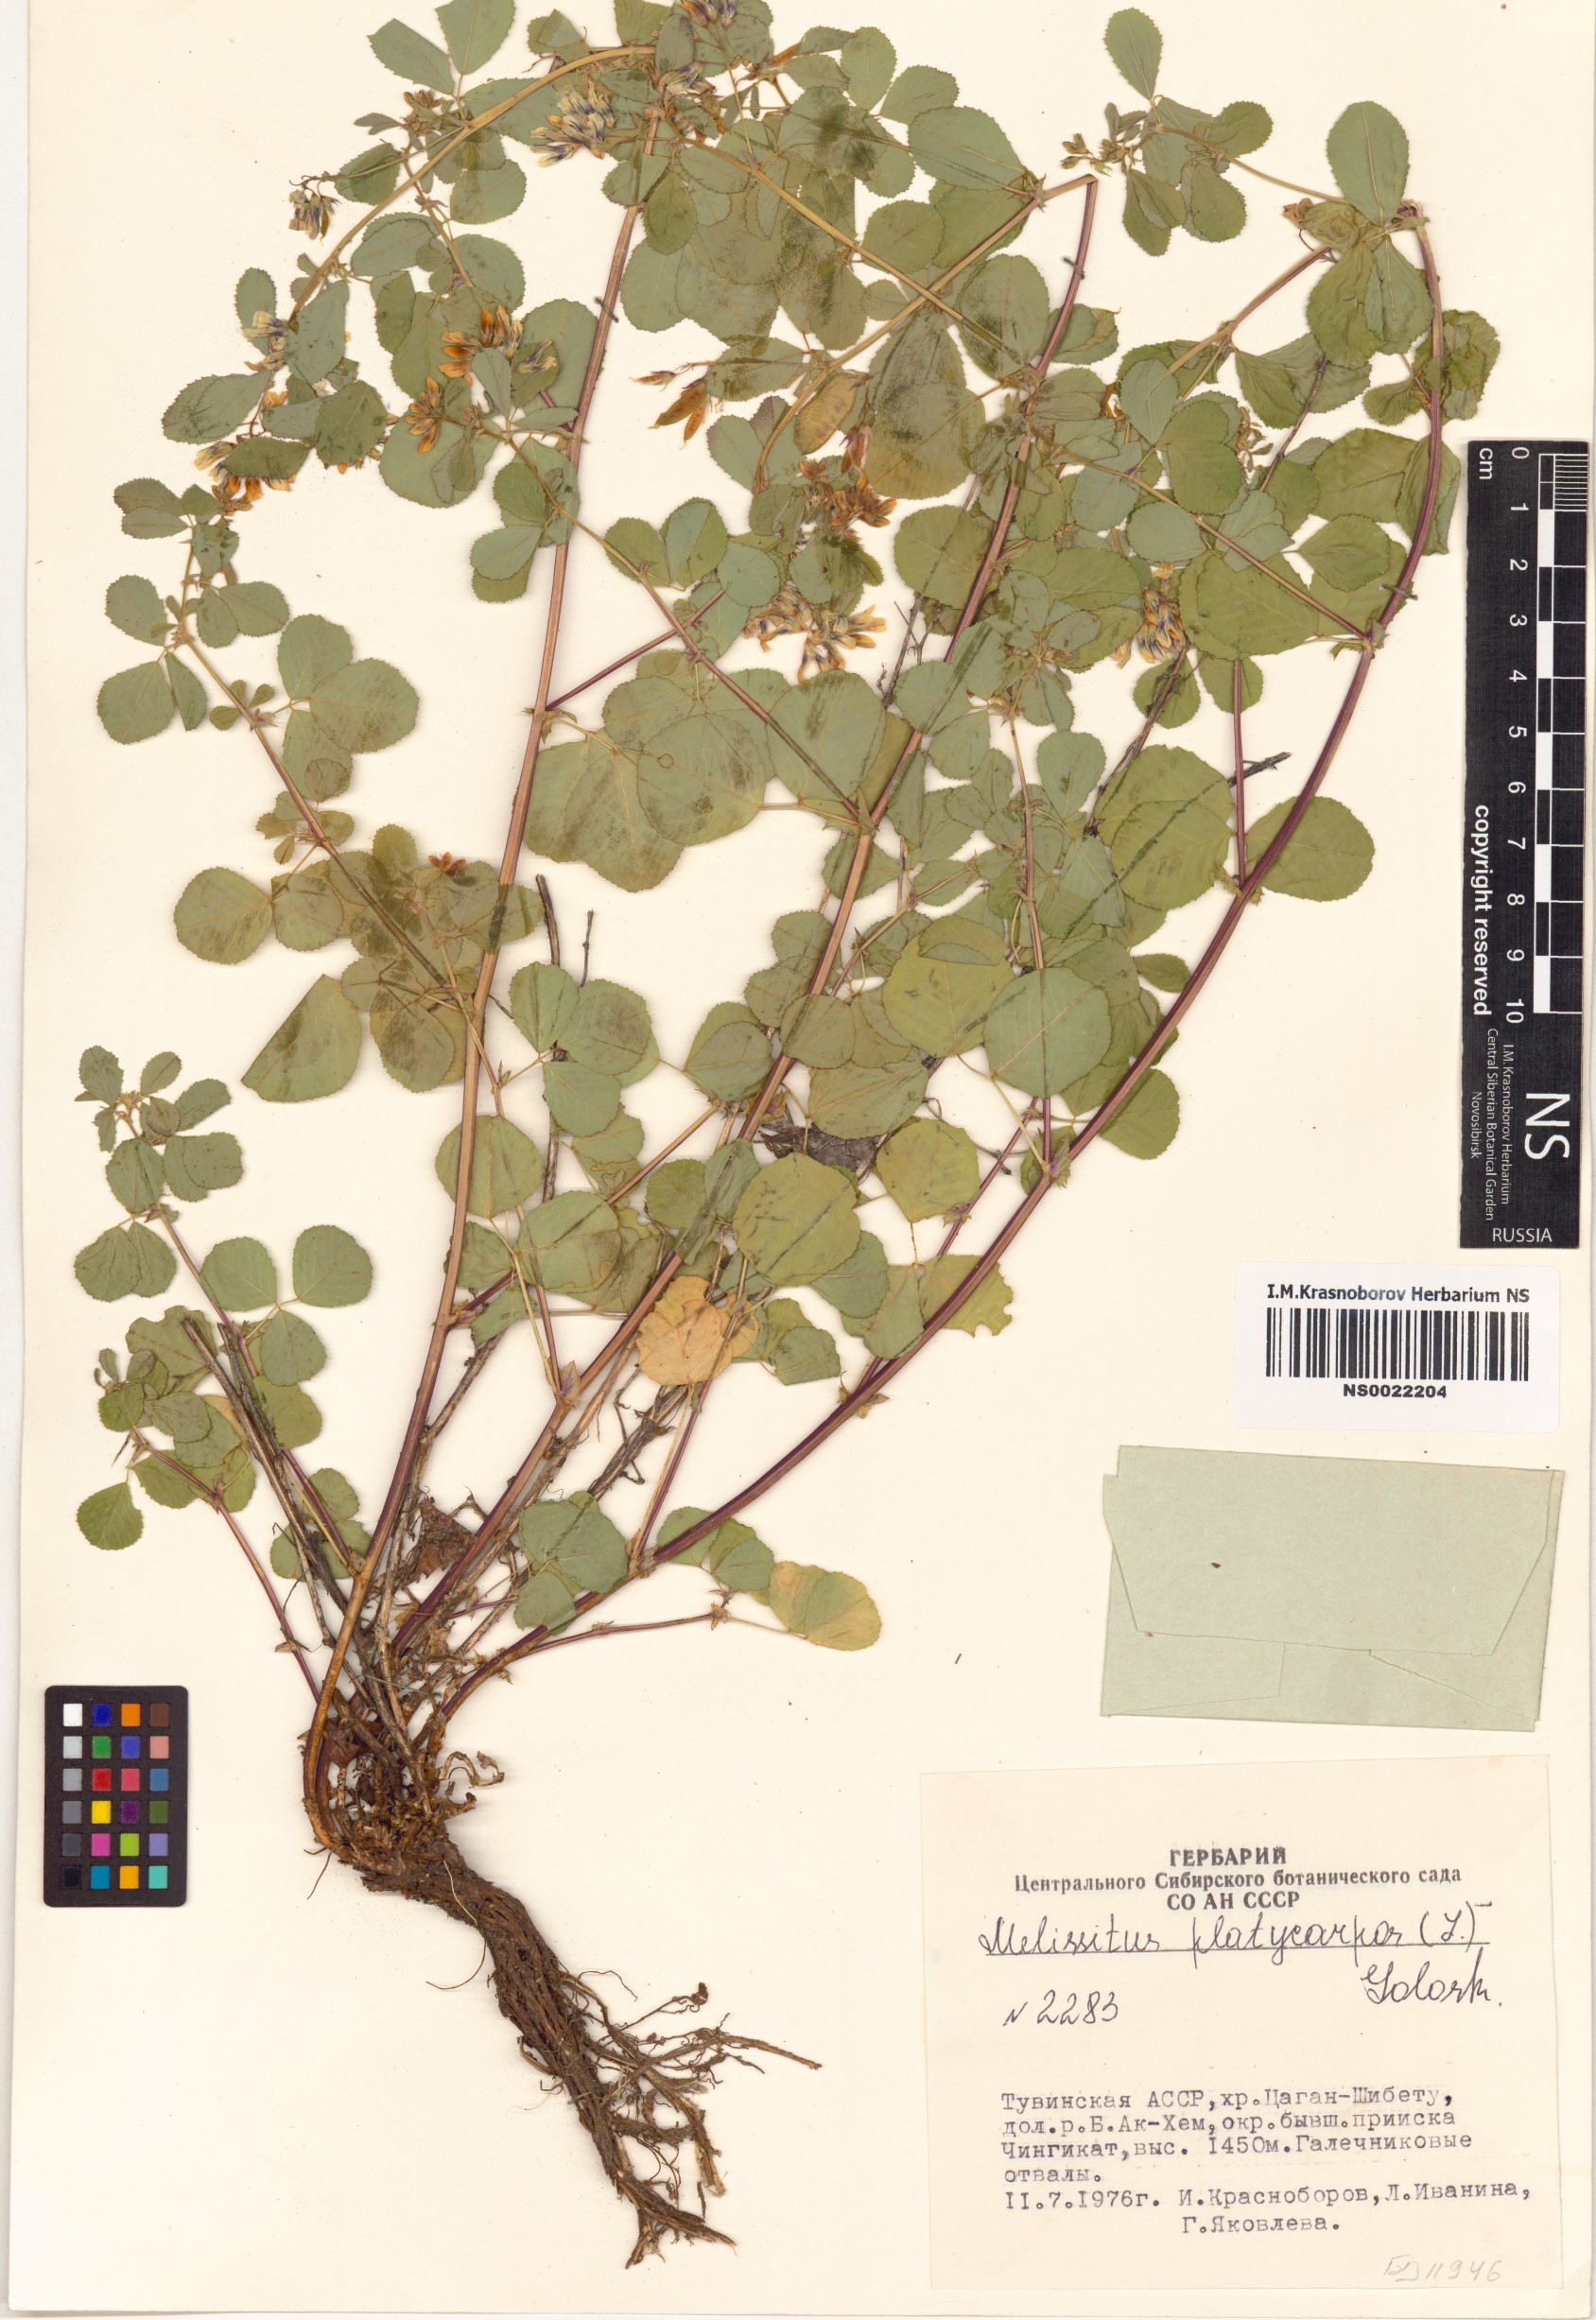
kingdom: Plantae
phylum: Tracheophyta
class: Magnoliopsida
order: Fabales
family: Fabaceae
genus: Medicago
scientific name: Medicago platycarpos
